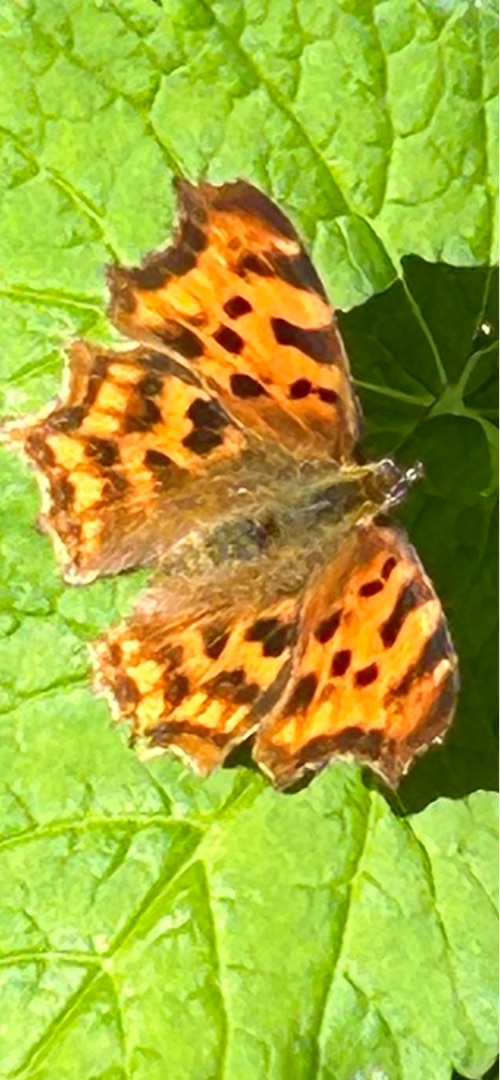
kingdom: Animalia
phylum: Arthropoda
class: Insecta
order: Lepidoptera
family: Nymphalidae
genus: Polygonia
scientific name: Polygonia c-album
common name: Det hvide C
